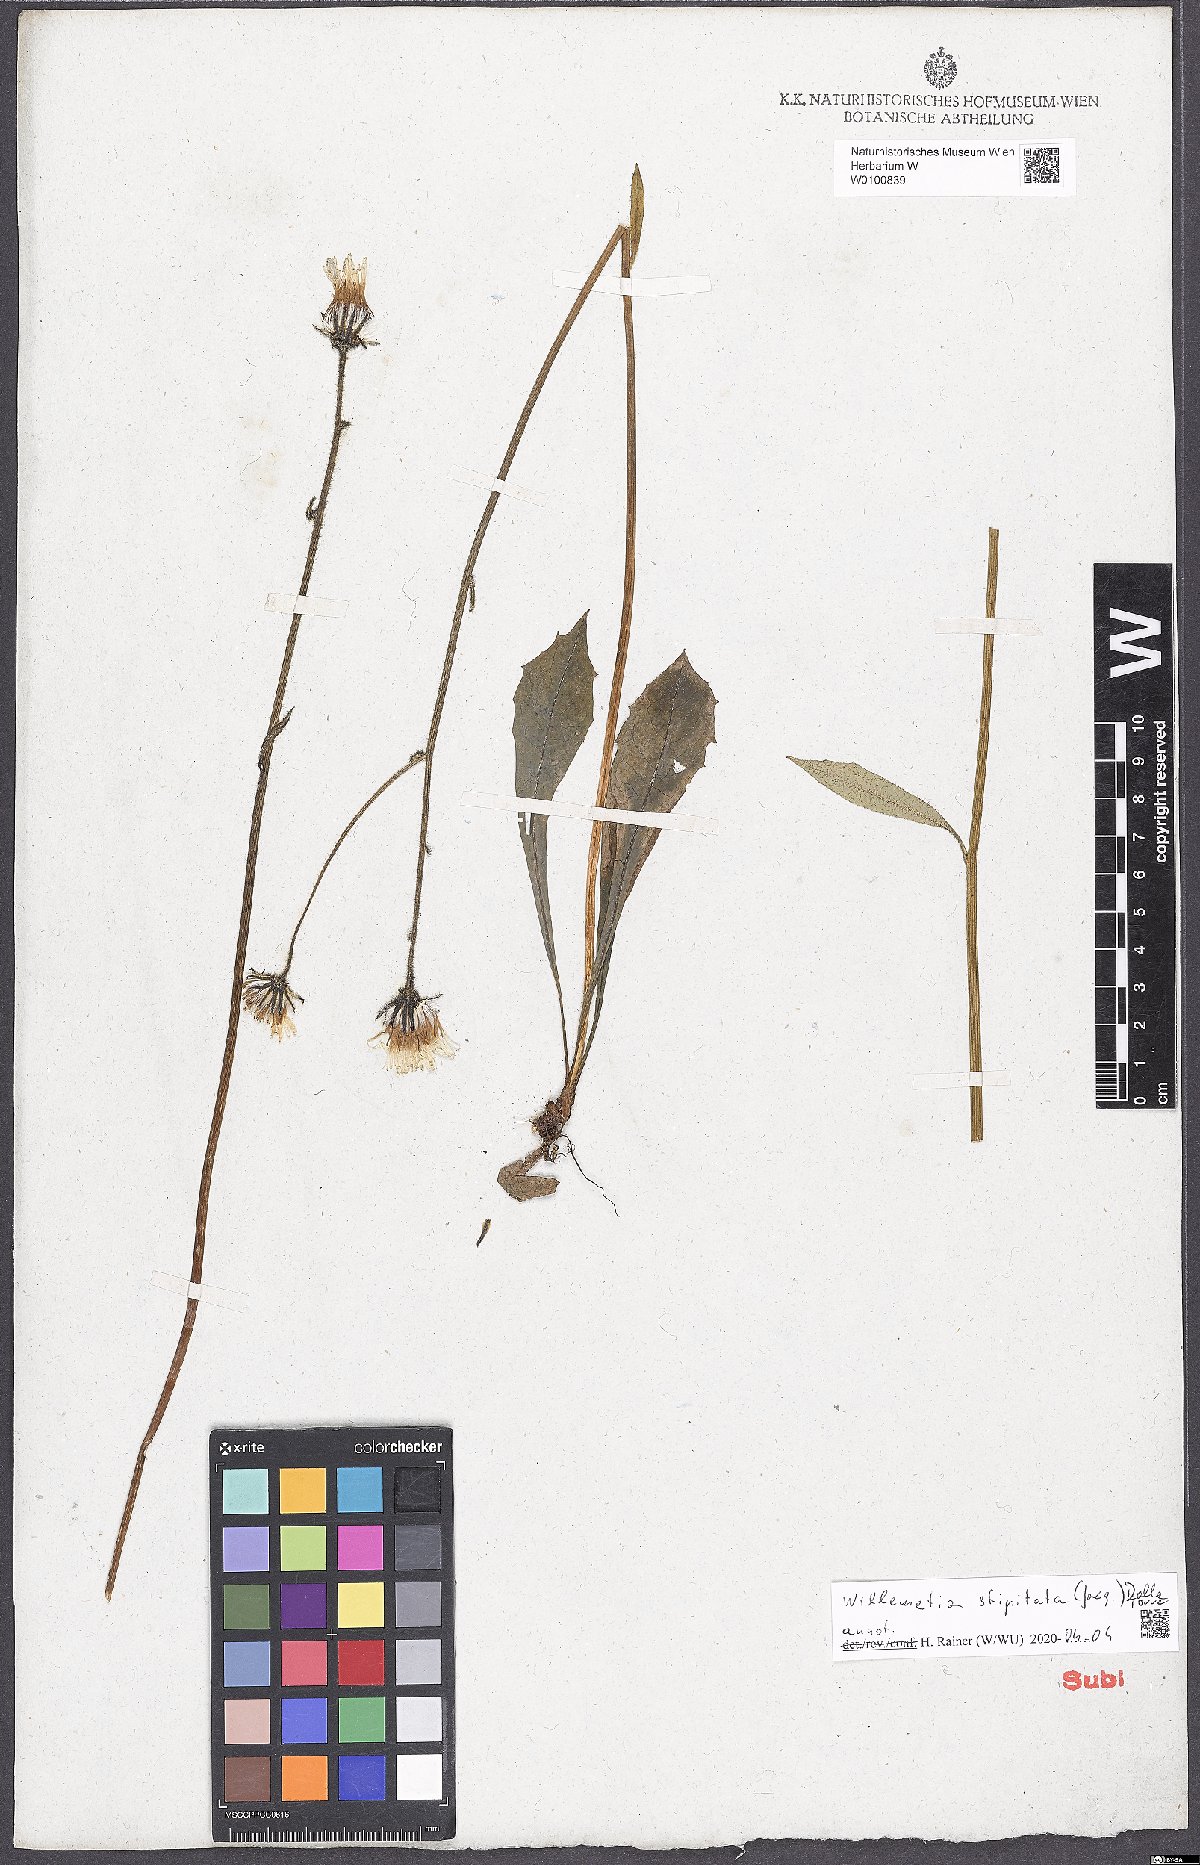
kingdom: Plantae
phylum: Tracheophyta
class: Magnoliopsida
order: Asterales
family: Asteraceae
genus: Willemetia
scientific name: Willemetia stipitata
